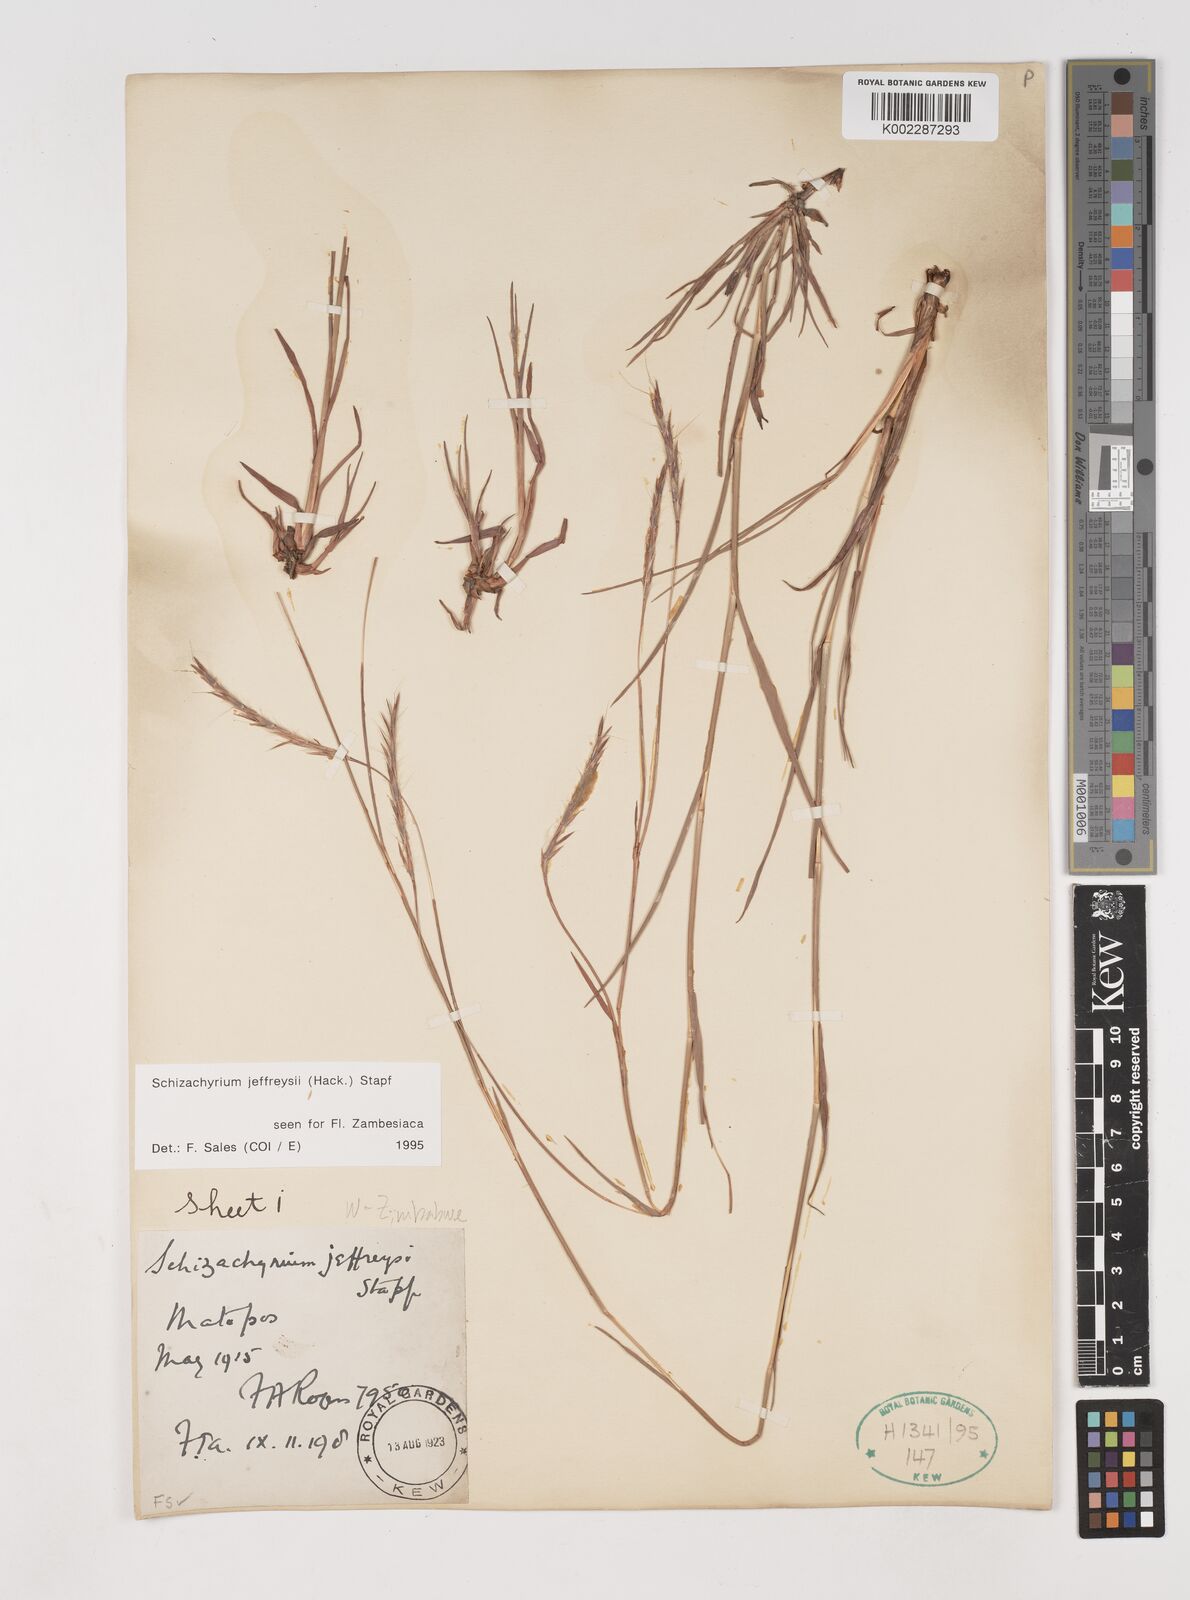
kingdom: Plantae
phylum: Tracheophyta
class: Liliopsida
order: Poales
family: Poaceae
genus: Schizachyrium
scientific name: Schizachyrium jeffreysii
